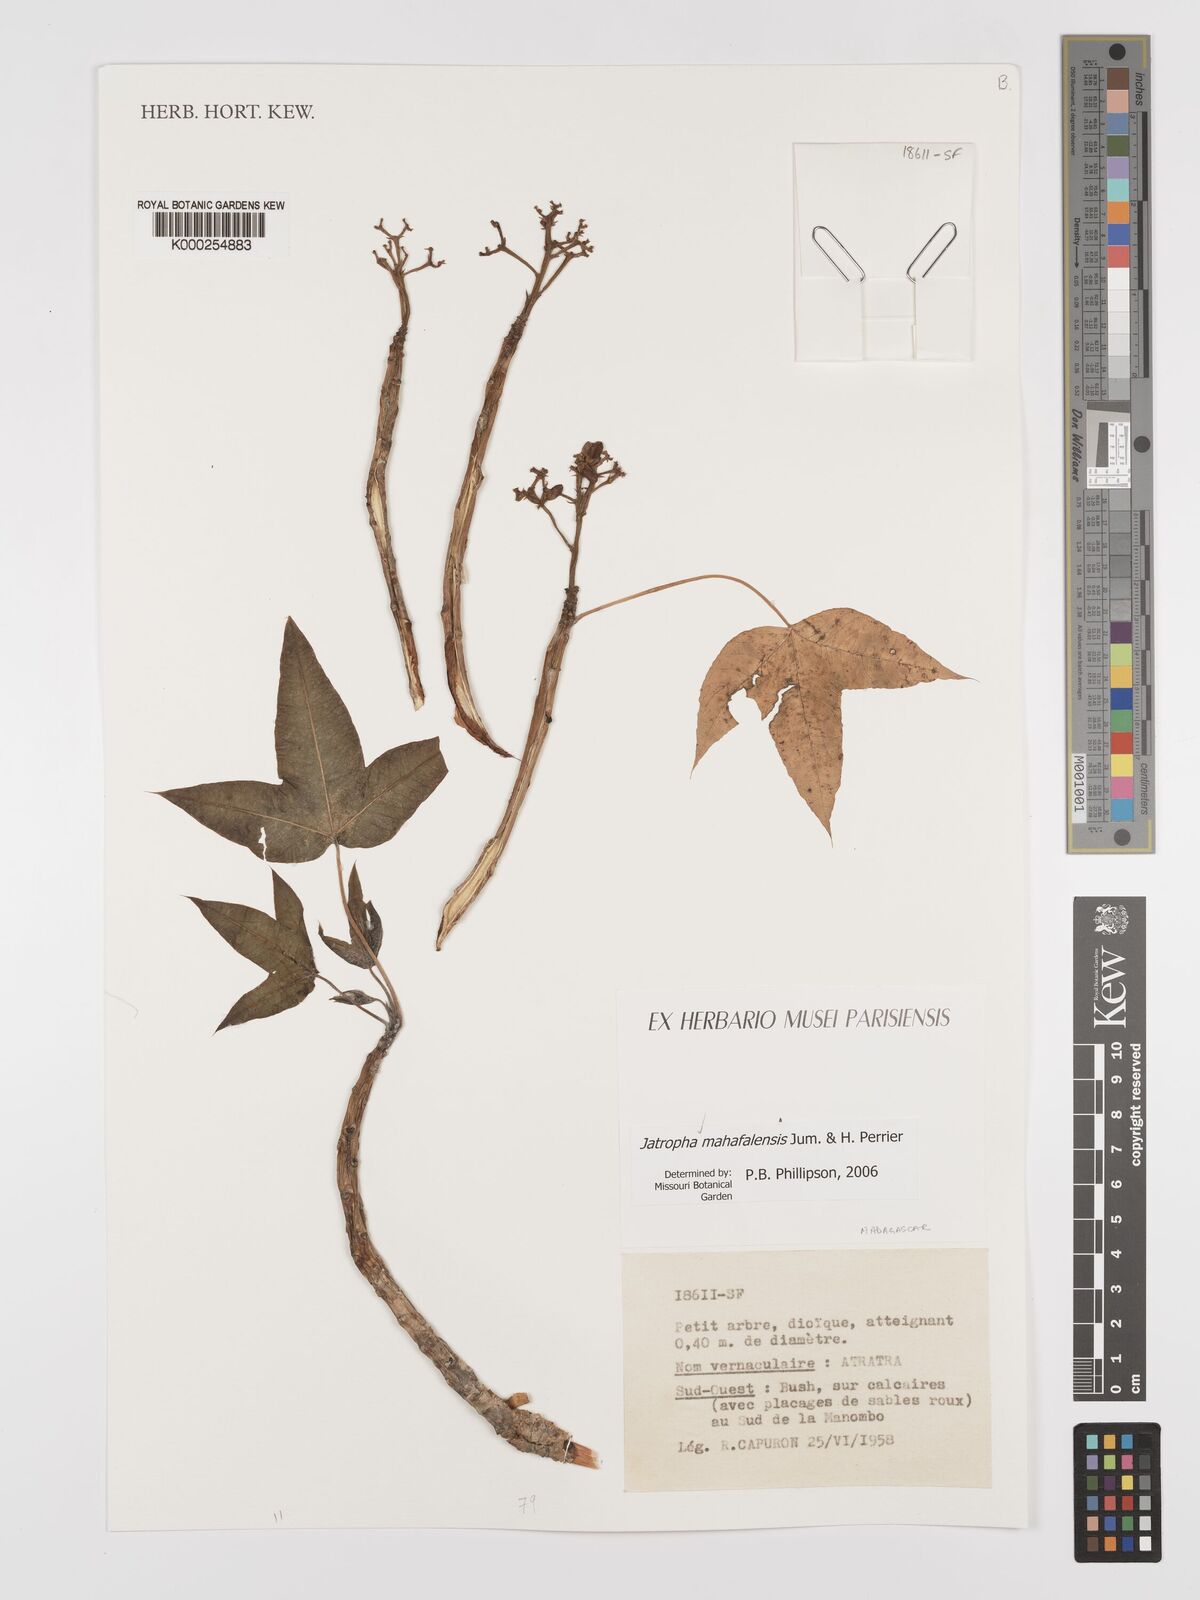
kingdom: Plantae
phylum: Tracheophyta
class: Magnoliopsida
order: Malpighiales
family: Euphorbiaceae
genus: Jatropha
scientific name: Jatropha mahafalensis
